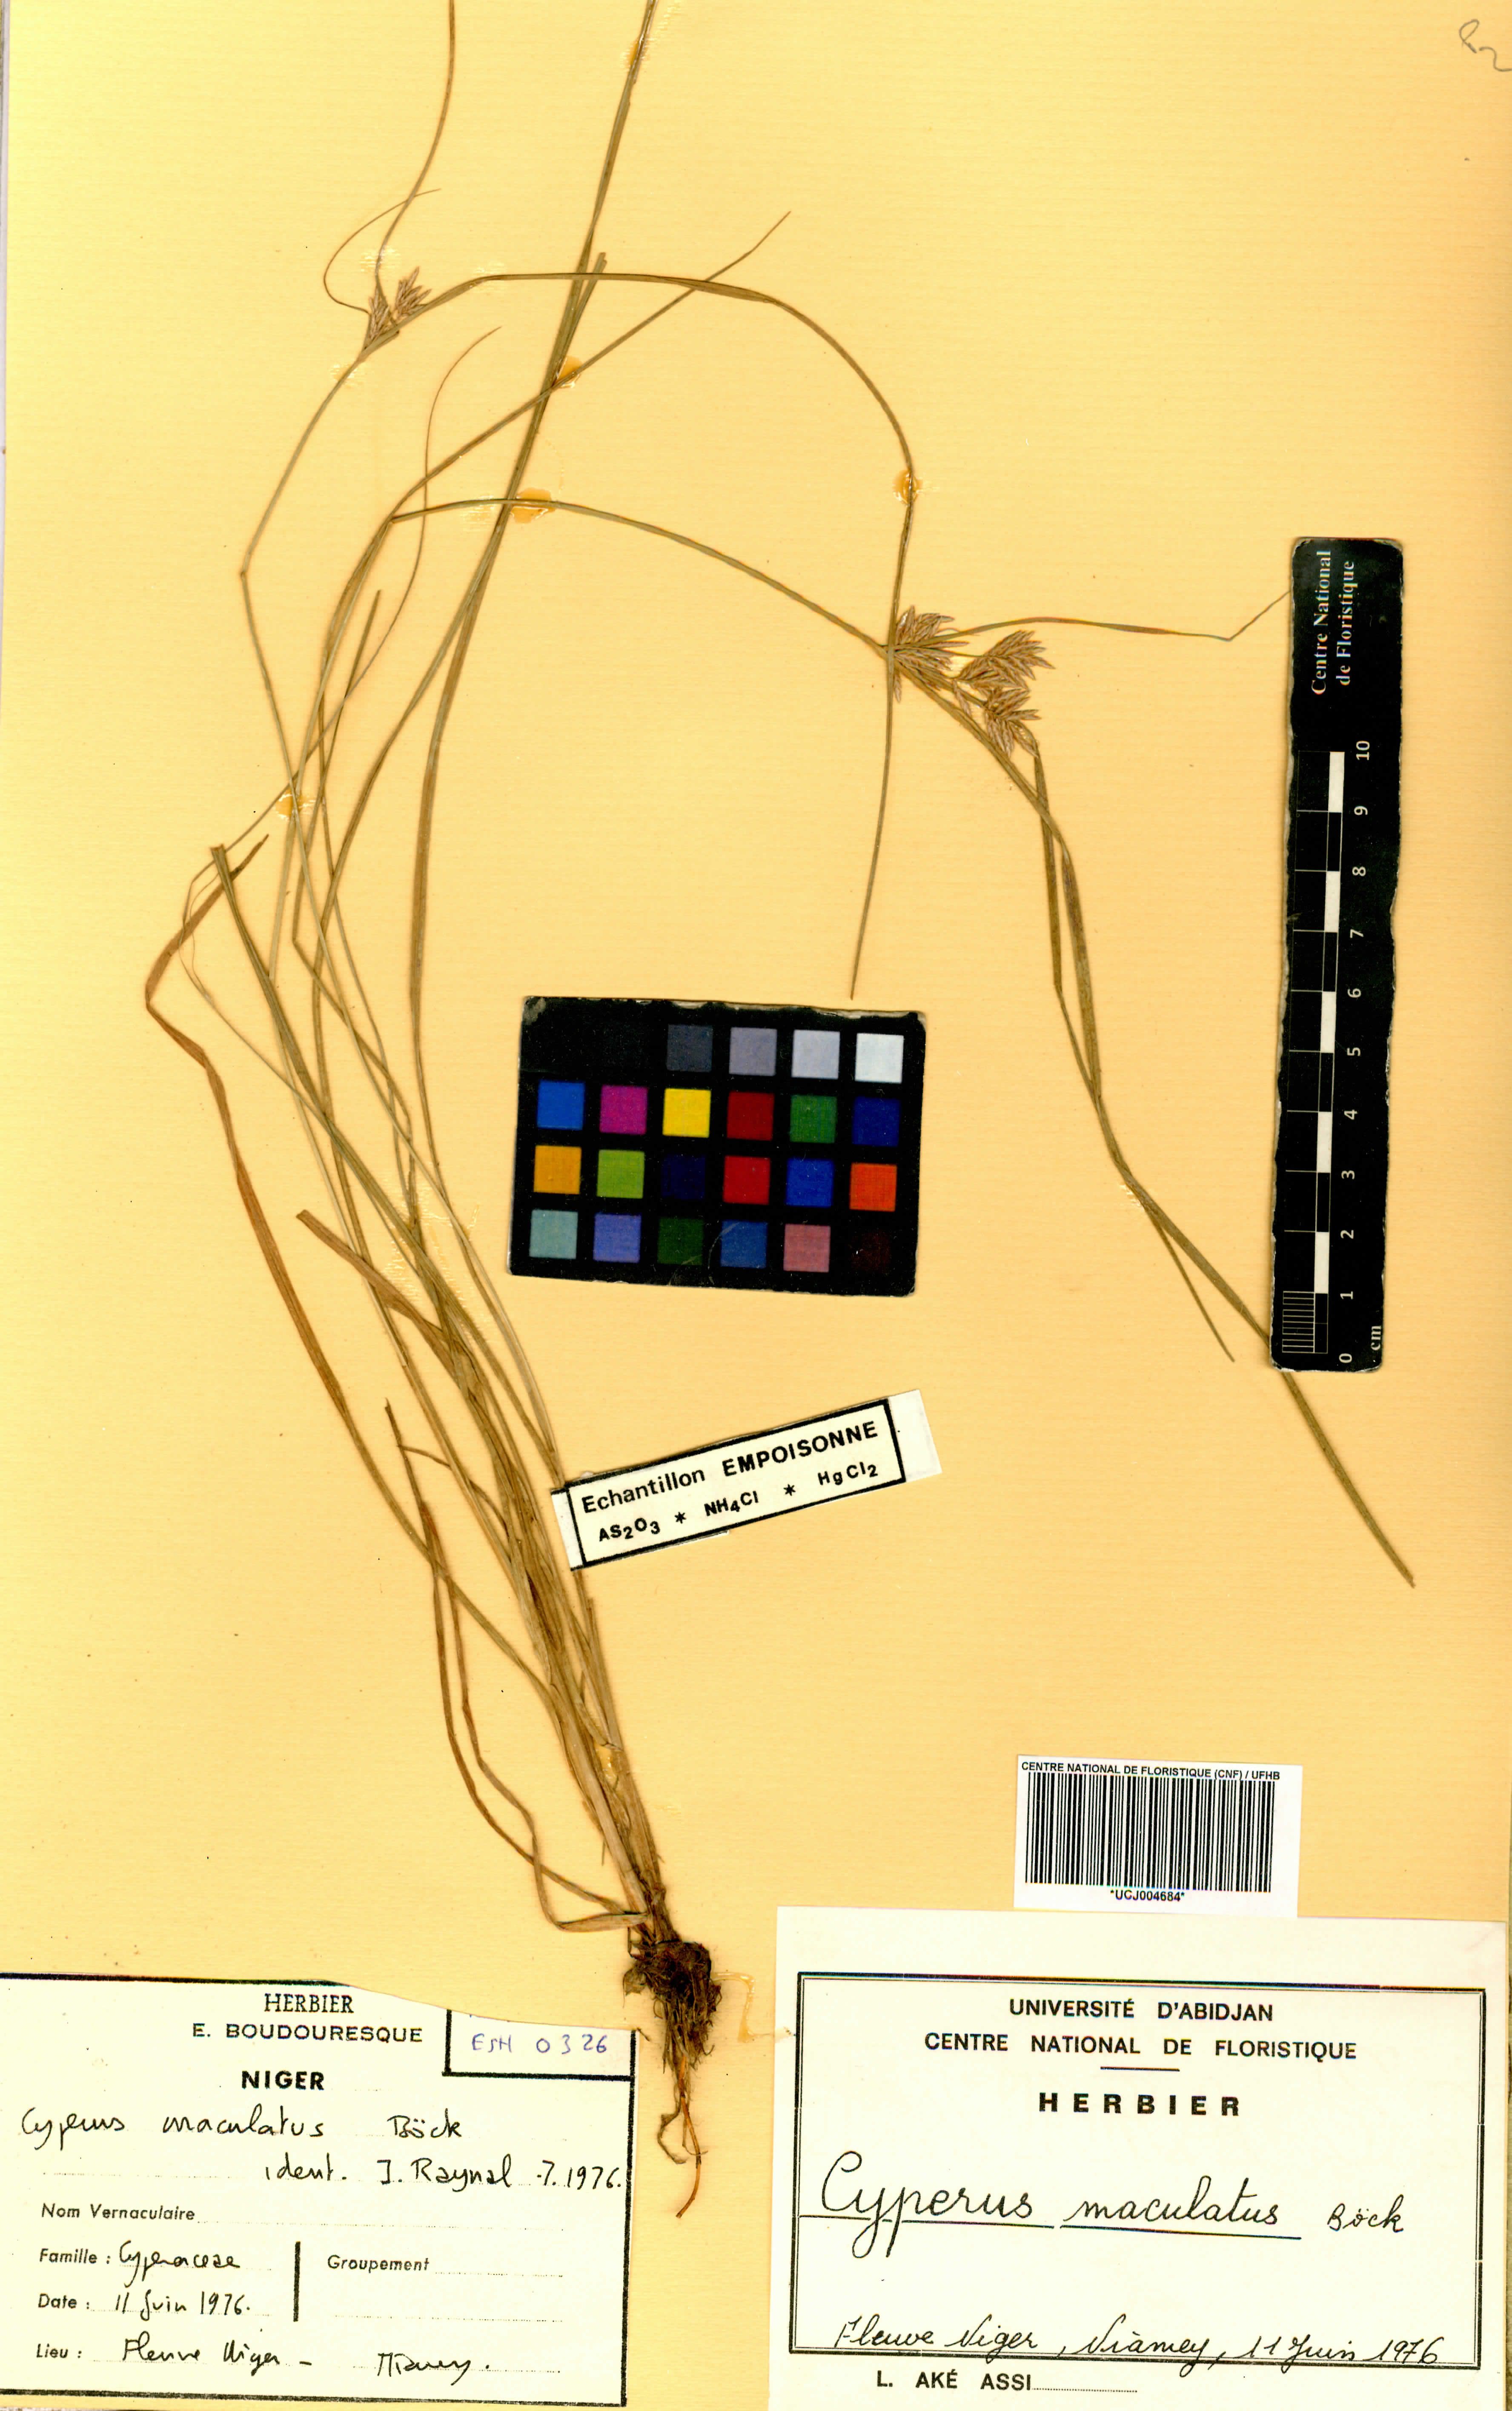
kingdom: Plantae
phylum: Tracheophyta
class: Liliopsida
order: Poales
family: Cyperaceae
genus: Cyperus
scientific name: Cyperus maculatus
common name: Maculated sedge
